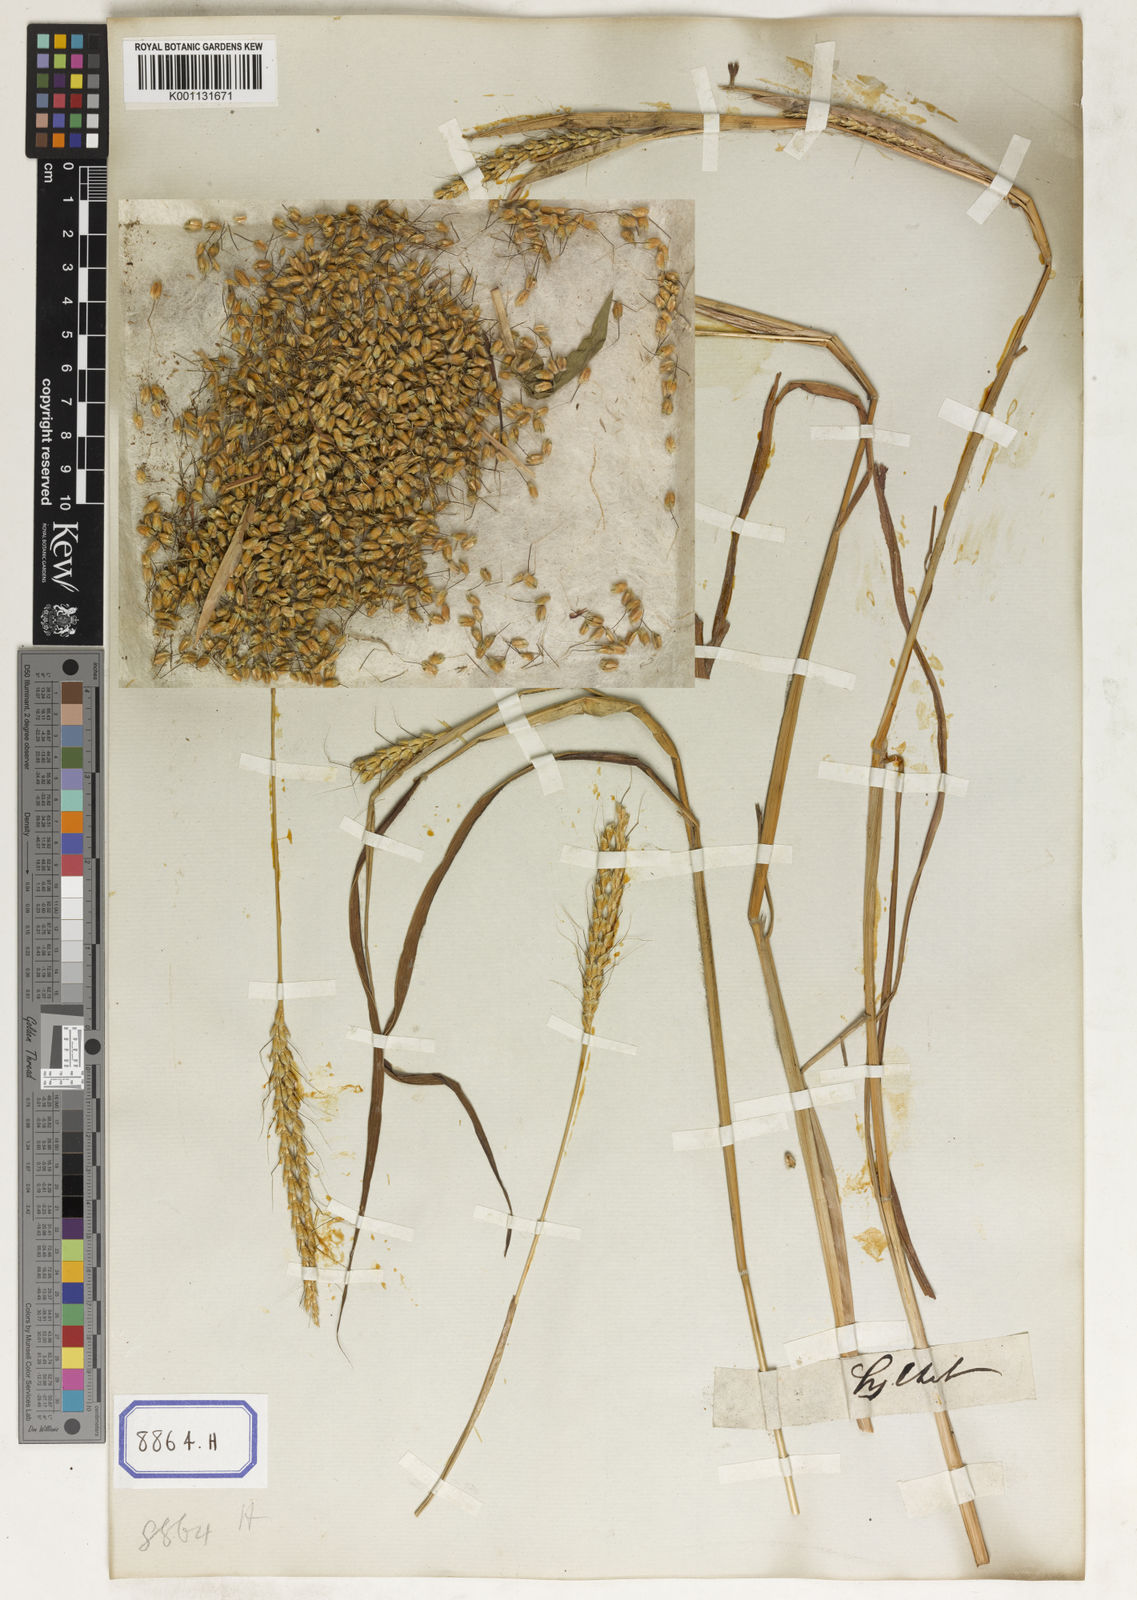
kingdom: Plantae
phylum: Tracheophyta
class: Liliopsida
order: Poales
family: Poaceae
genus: Ischaemum
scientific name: Ischaemum rugosum
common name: Saramatta grass
